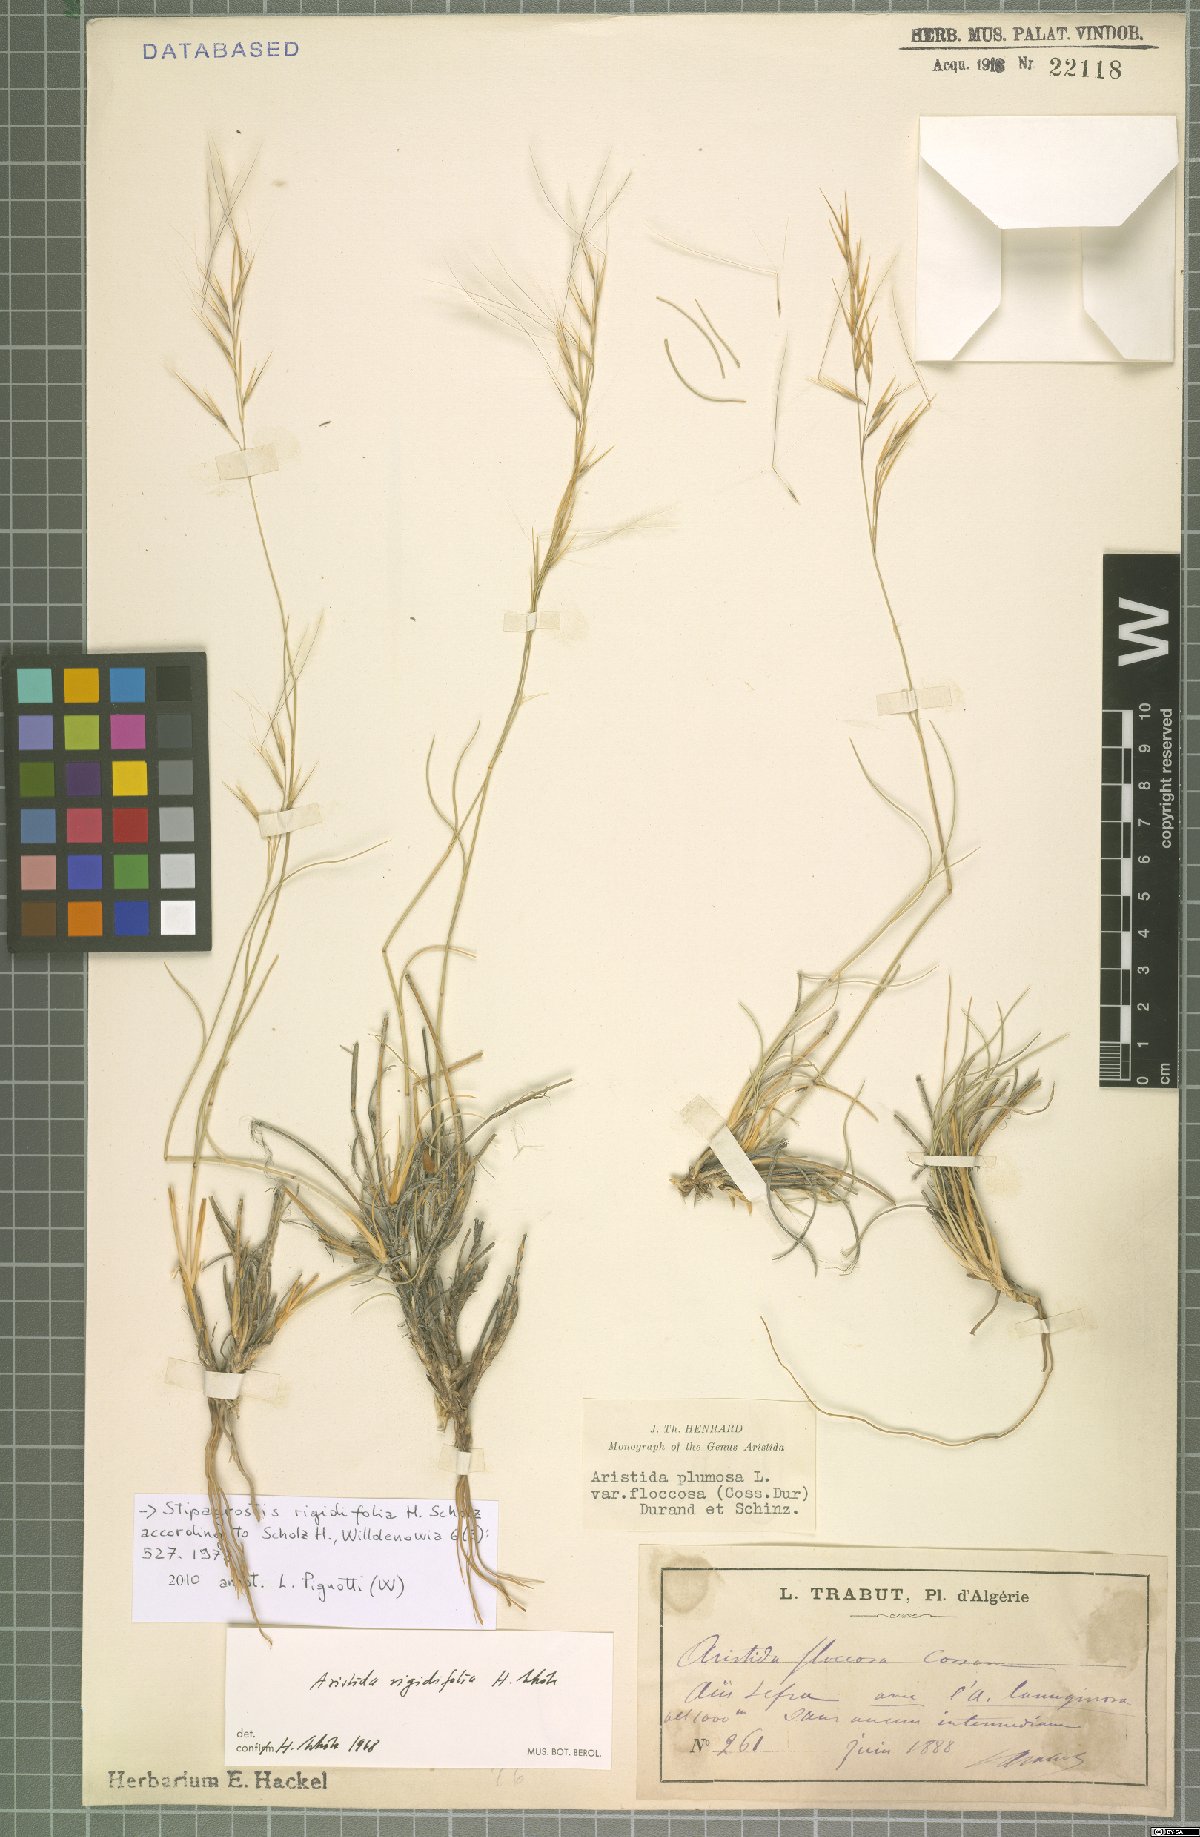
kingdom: Plantae
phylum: Tracheophyta
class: Liliopsida
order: Poales
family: Poaceae
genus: Stipagrostis
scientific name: Stipagrostis rigidifolia
